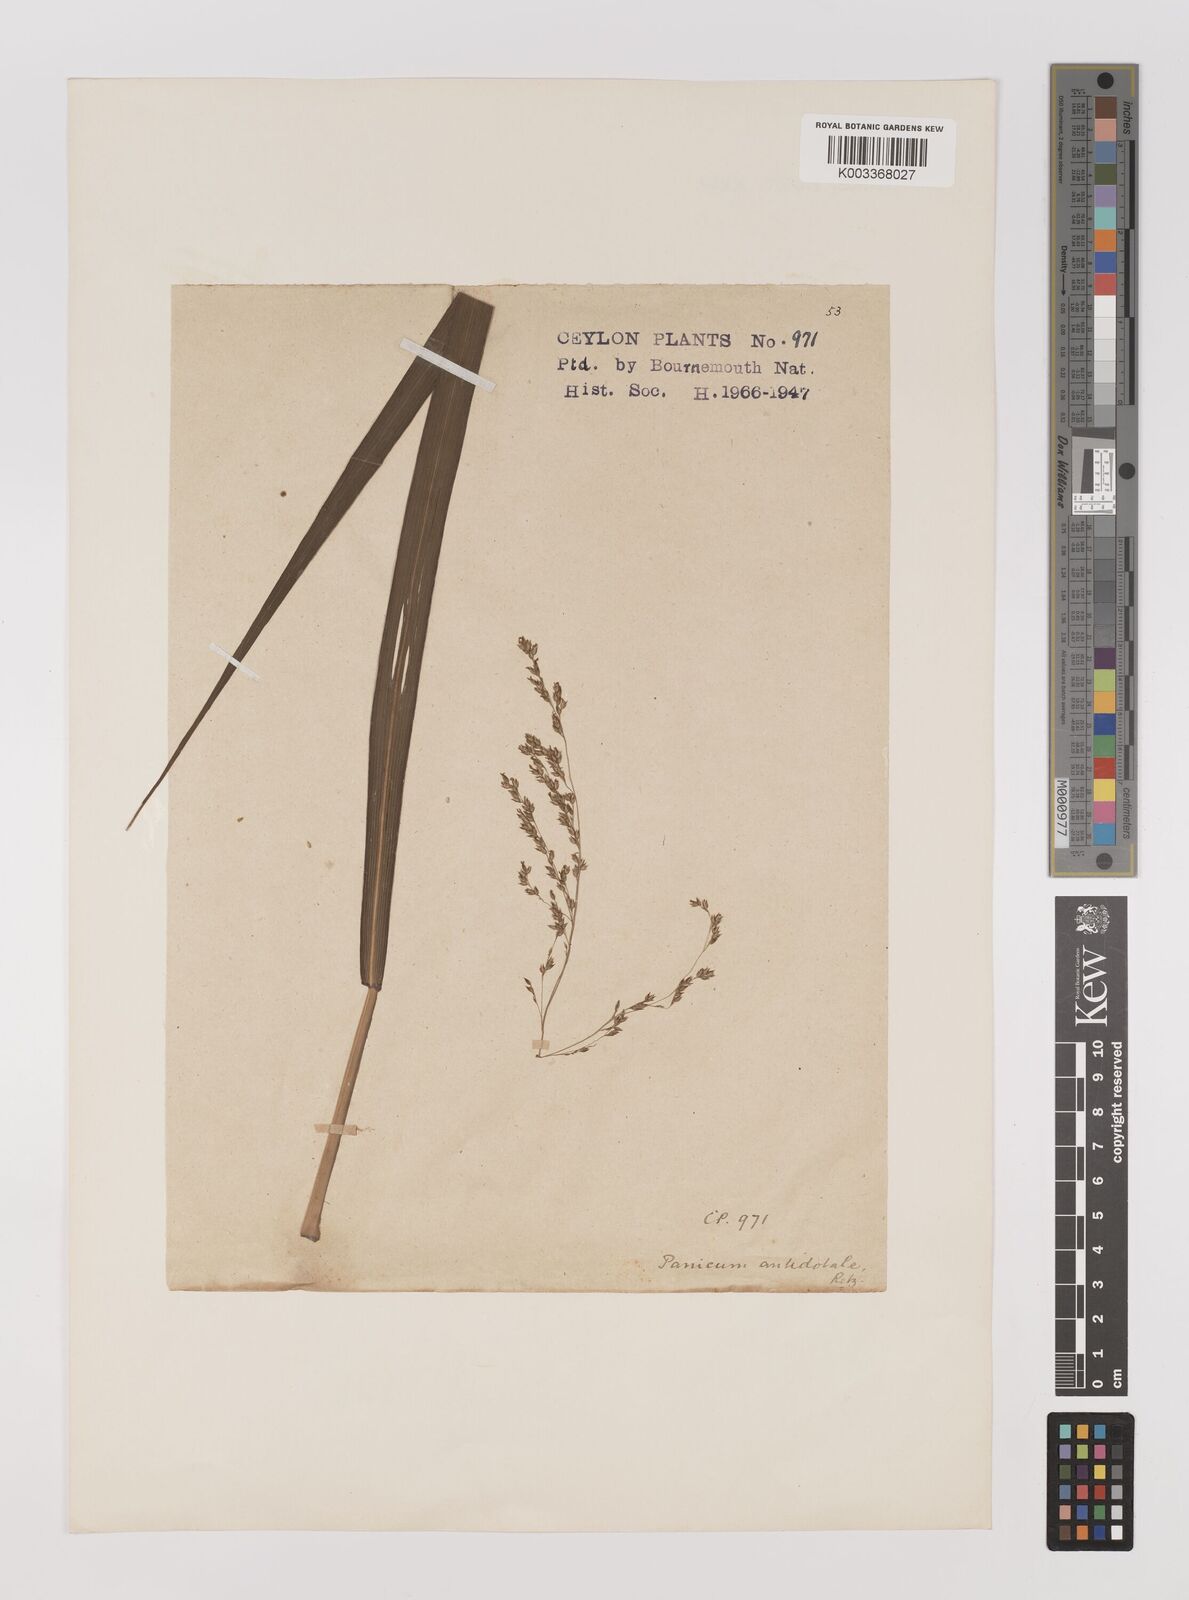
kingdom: Plantae
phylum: Tracheophyta
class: Liliopsida
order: Poales
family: Poaceae
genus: Panicum
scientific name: Panicum antidotale
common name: Blue panicum
